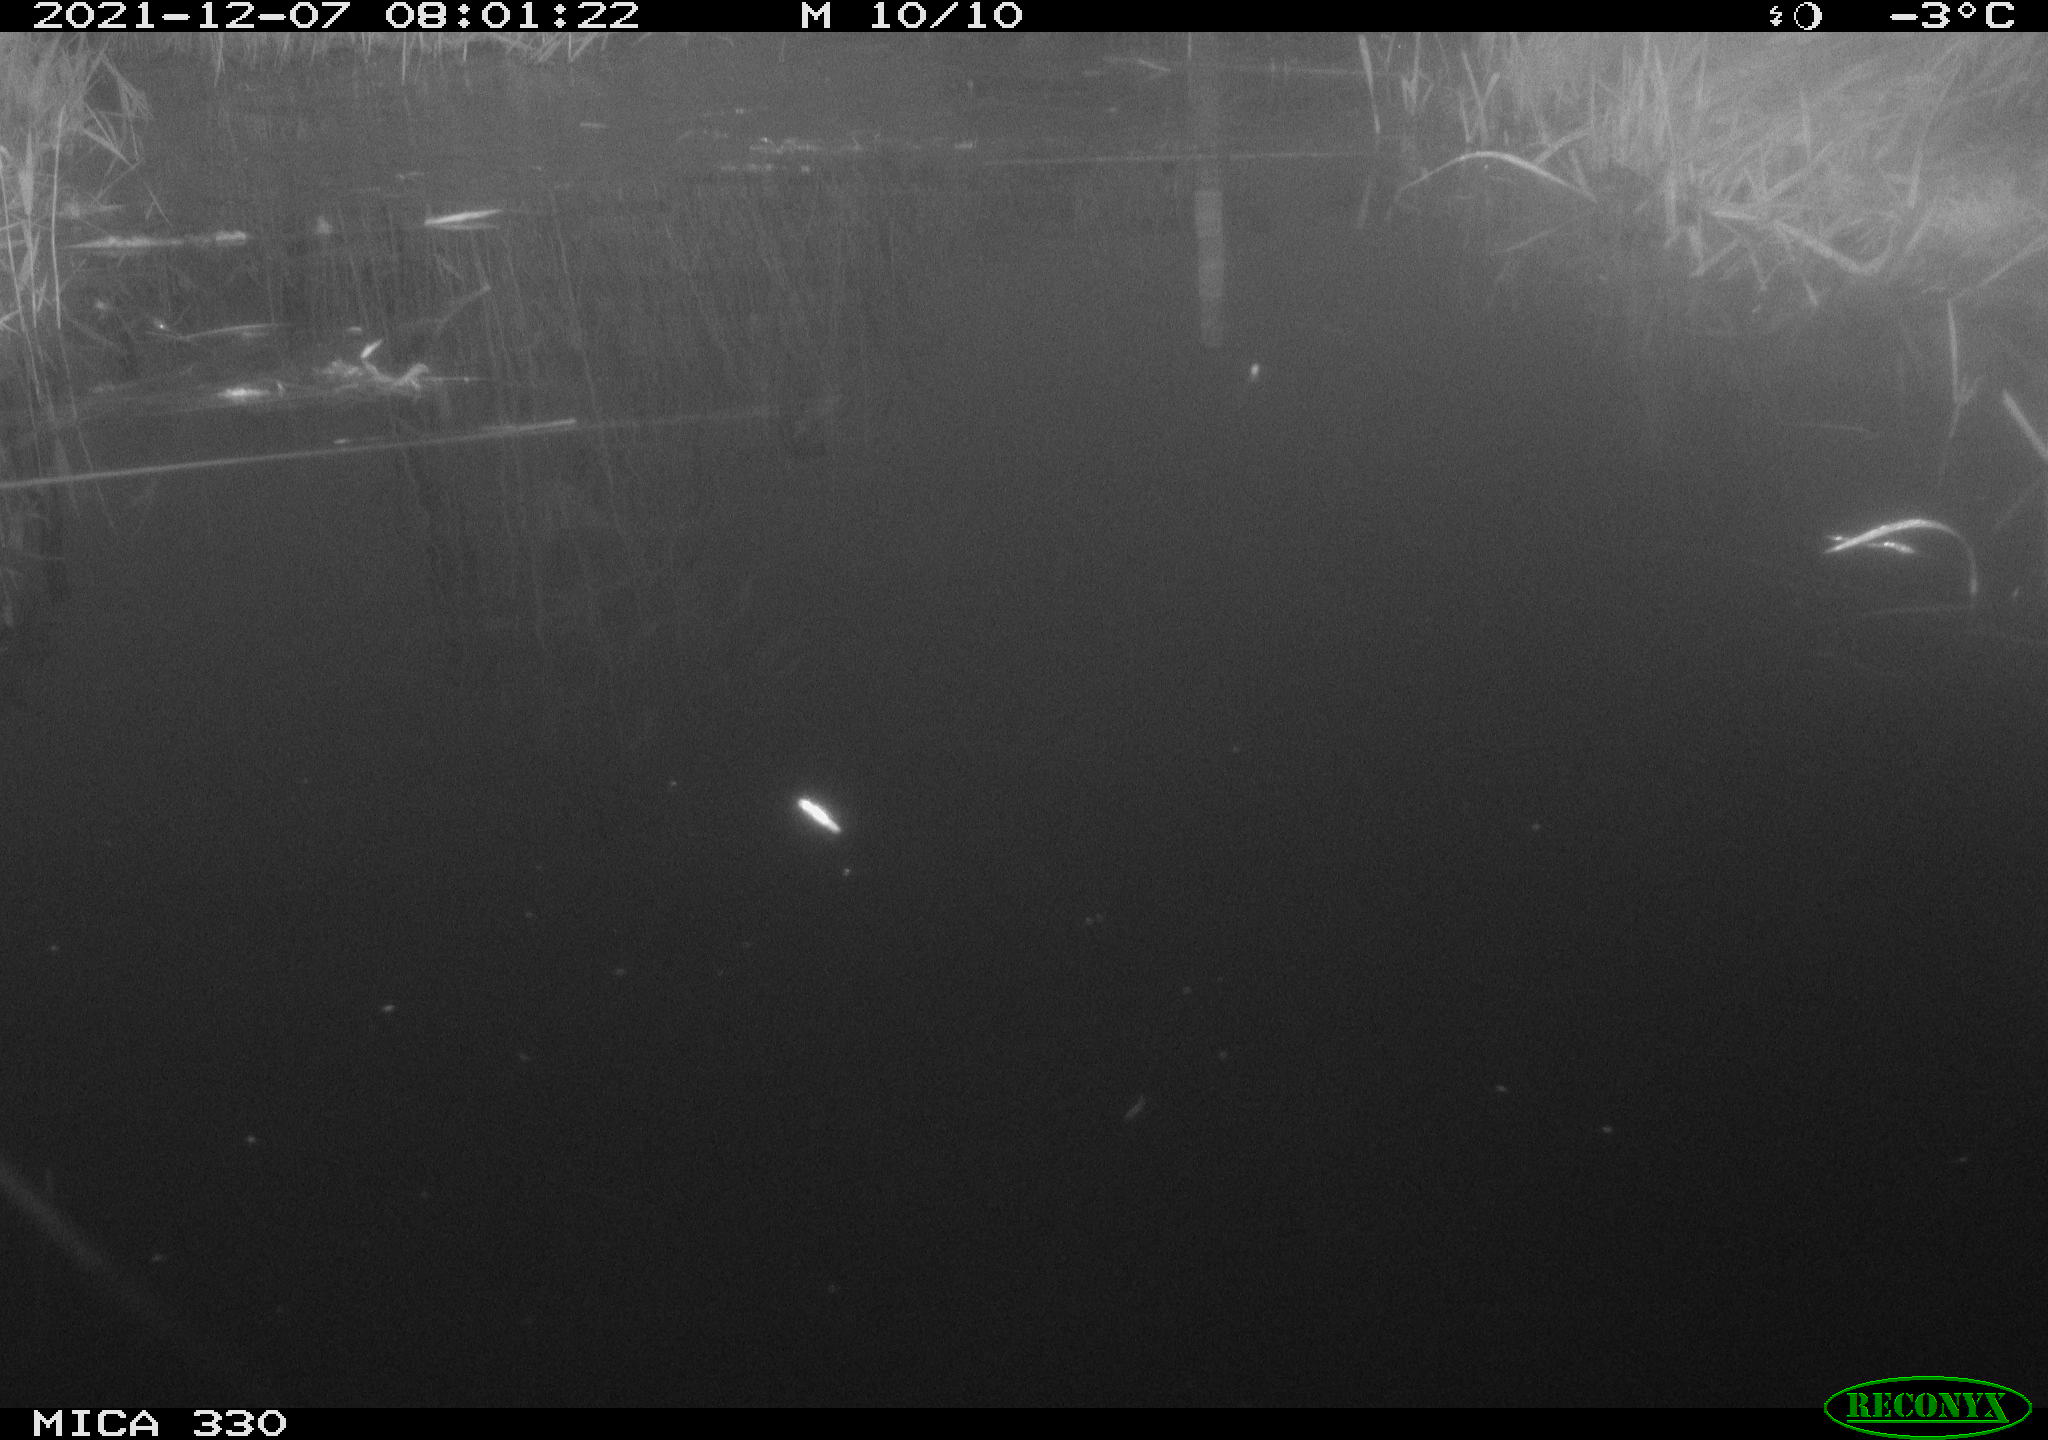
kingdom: Animalia
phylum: Chordata
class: Aves
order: Gruiformes
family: Rallidae
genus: Gallinula
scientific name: Gallinula chloropus
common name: Common moorhen
